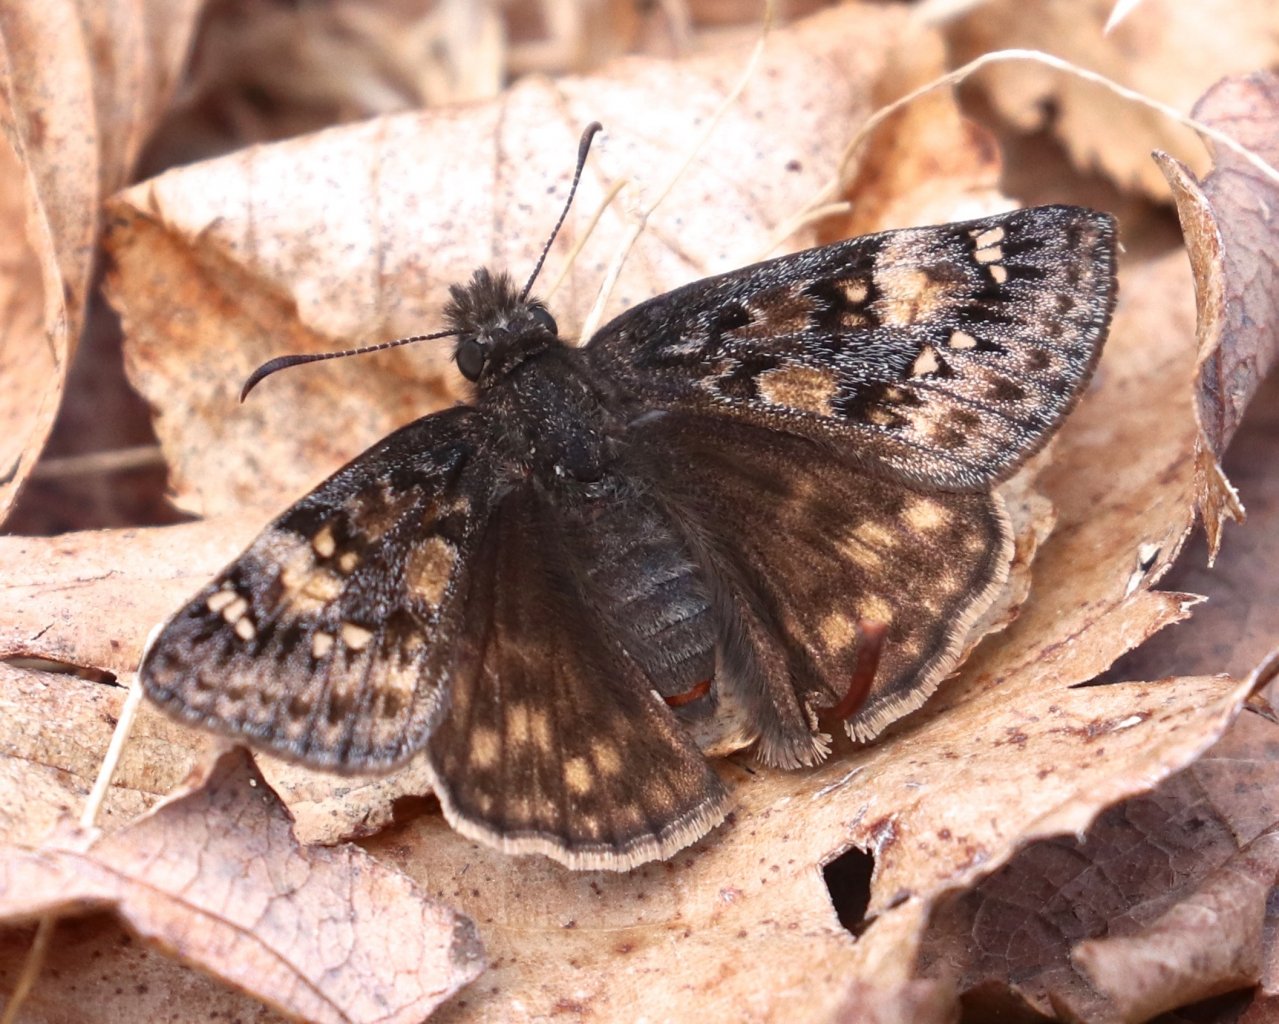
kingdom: Animalia
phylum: Arthropoda
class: Insecta
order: Lepidoptera
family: Hesperiidae
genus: Gesta
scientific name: Gesta
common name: Juvenal's Duskywing
